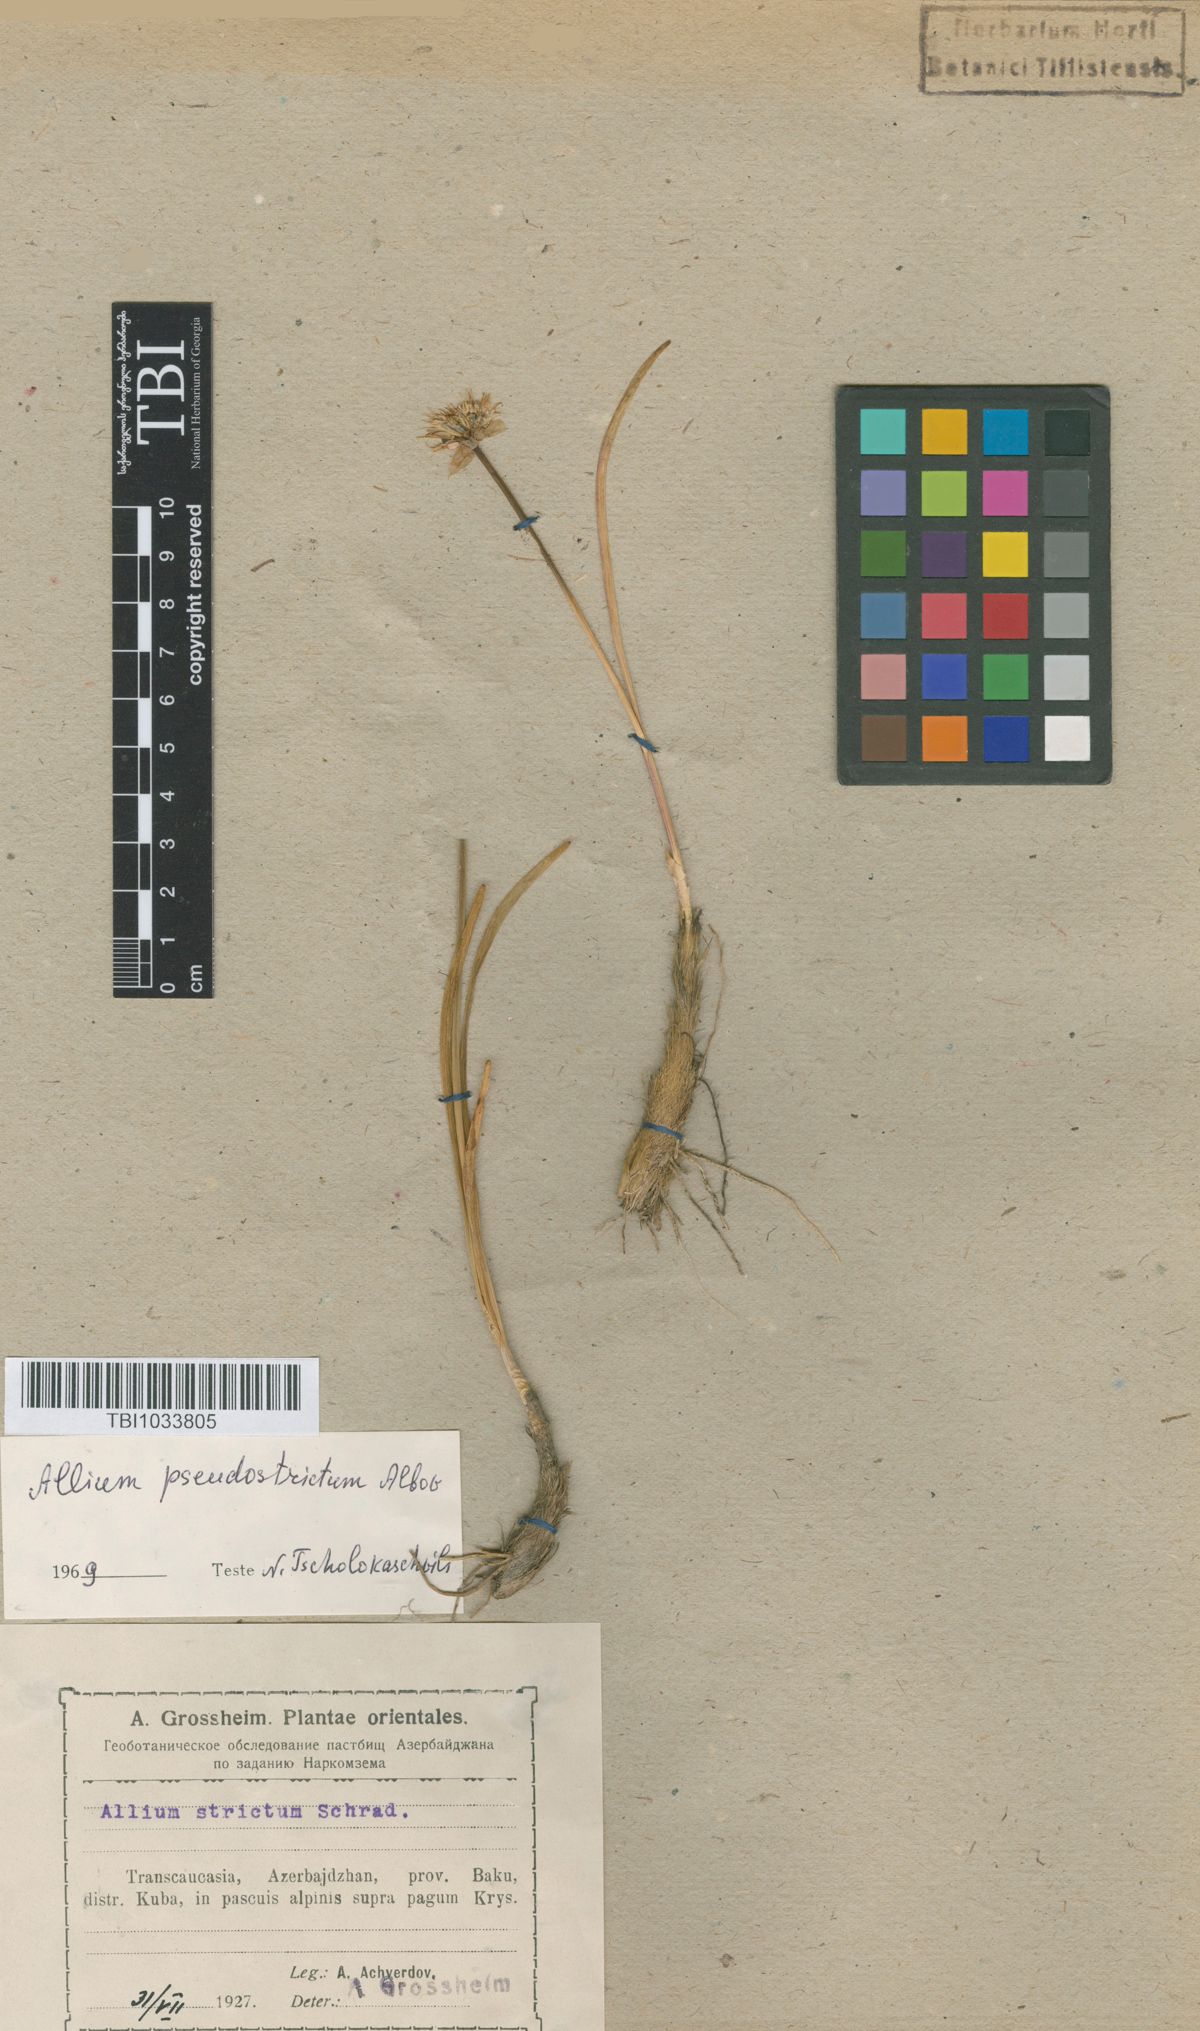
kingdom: Plantae
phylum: Tracheophyta
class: Liliopsida
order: Asparagales
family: Amaryllidaceae
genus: Allium
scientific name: Allium pseudostrictum
